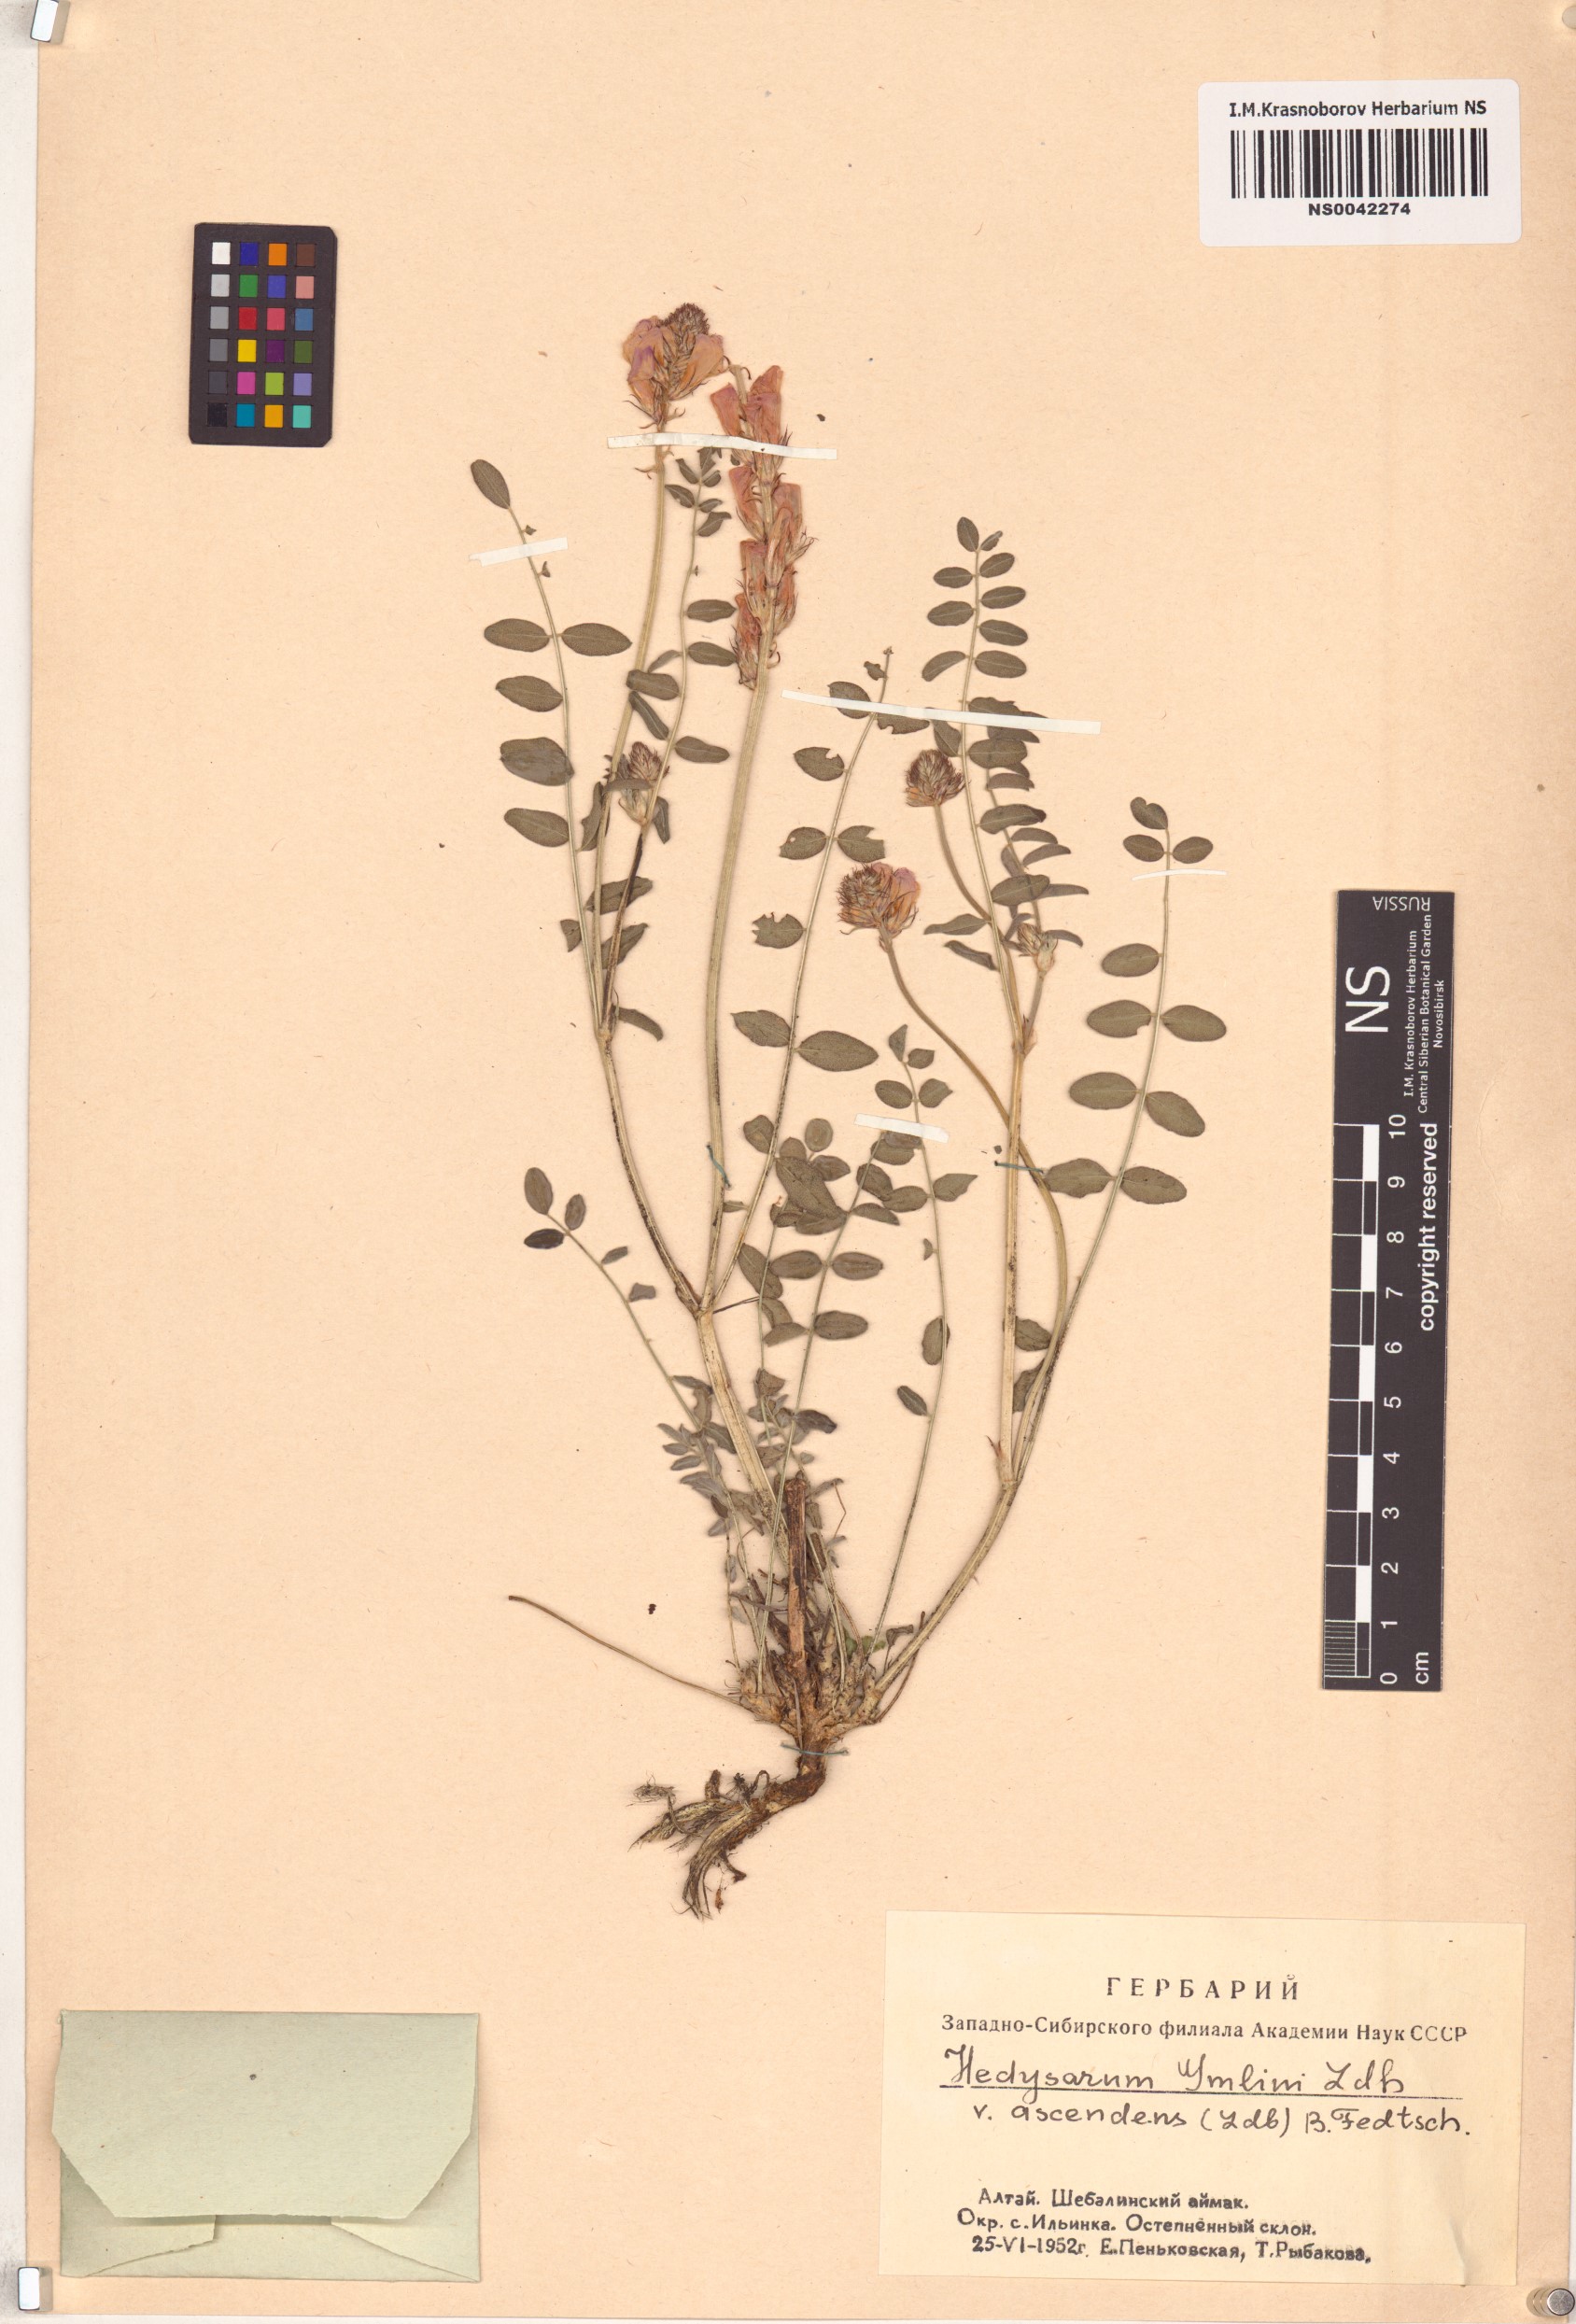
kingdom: Plantae
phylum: Tracheophyta
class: Magnoliopsida
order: Fabales
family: Fabaceae
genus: Hedysarum
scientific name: Hedysarum gmelinii
